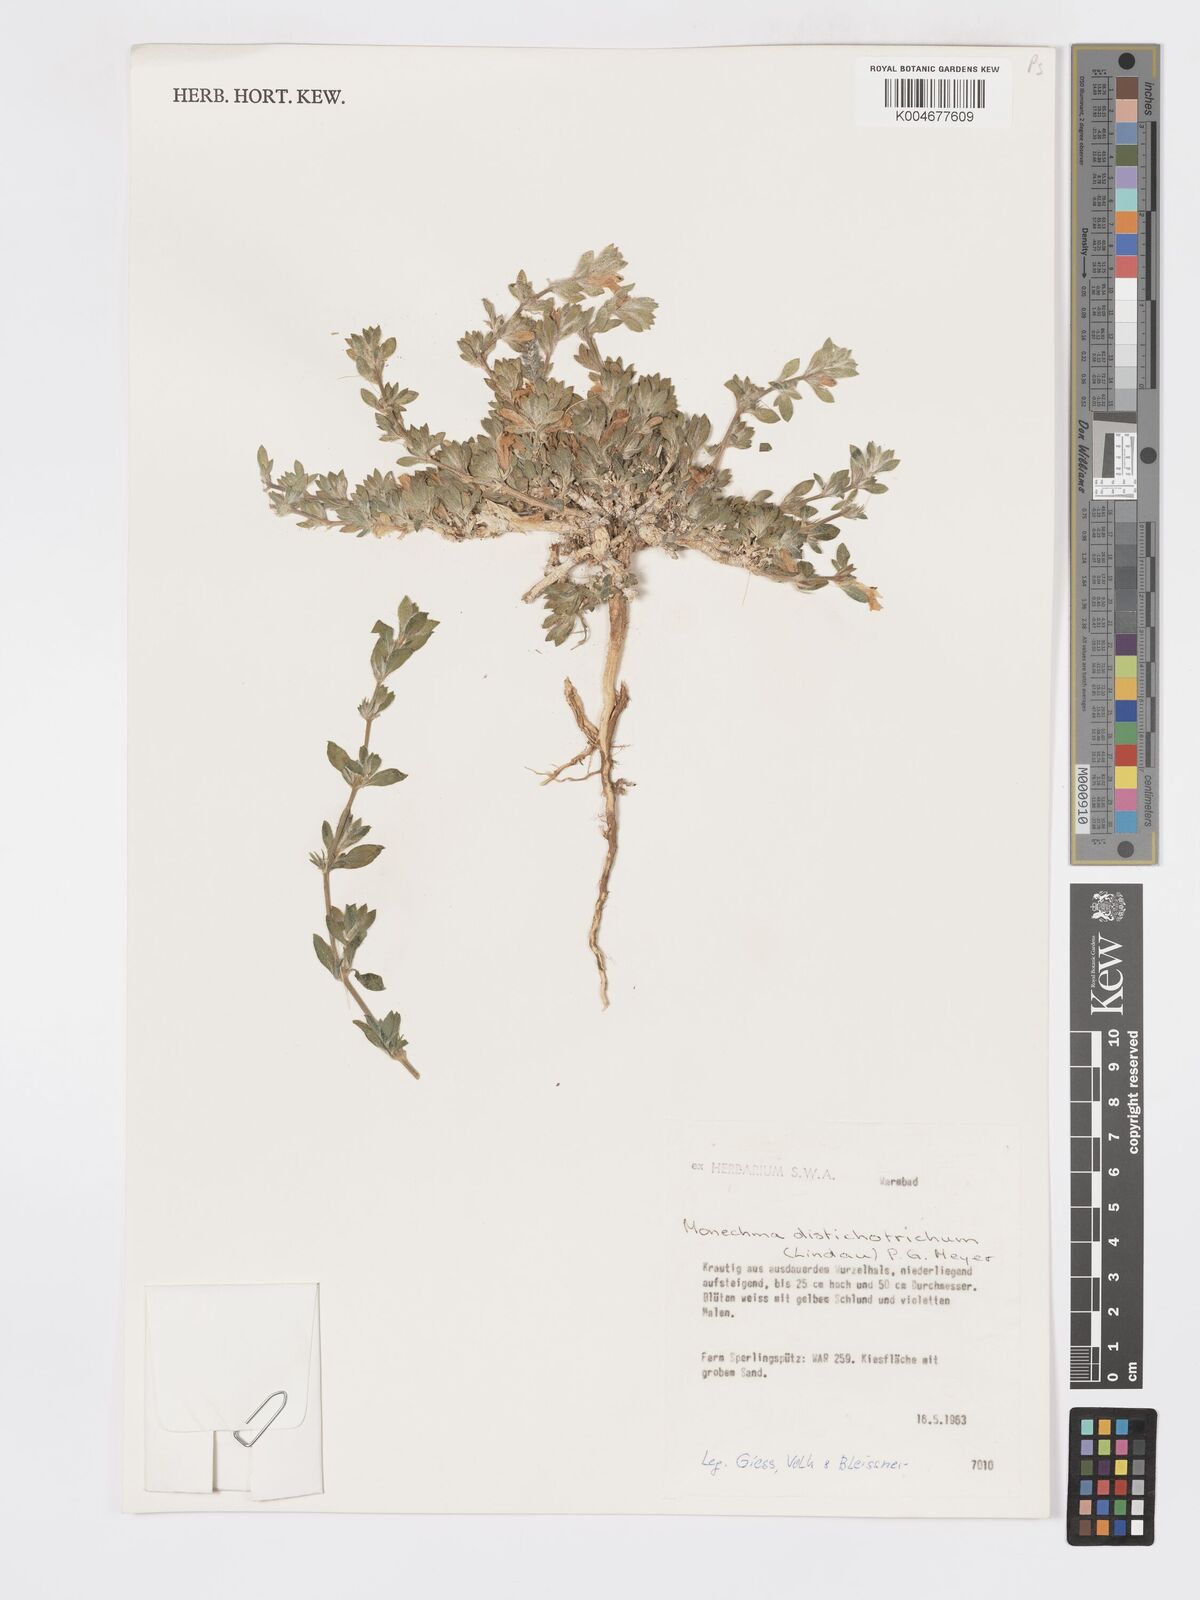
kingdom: Plantae
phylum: Tracheophyta
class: Magnoliopsida
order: Lamiales
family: Acanthaceae
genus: Pogonospermum
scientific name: Pogonospermum
